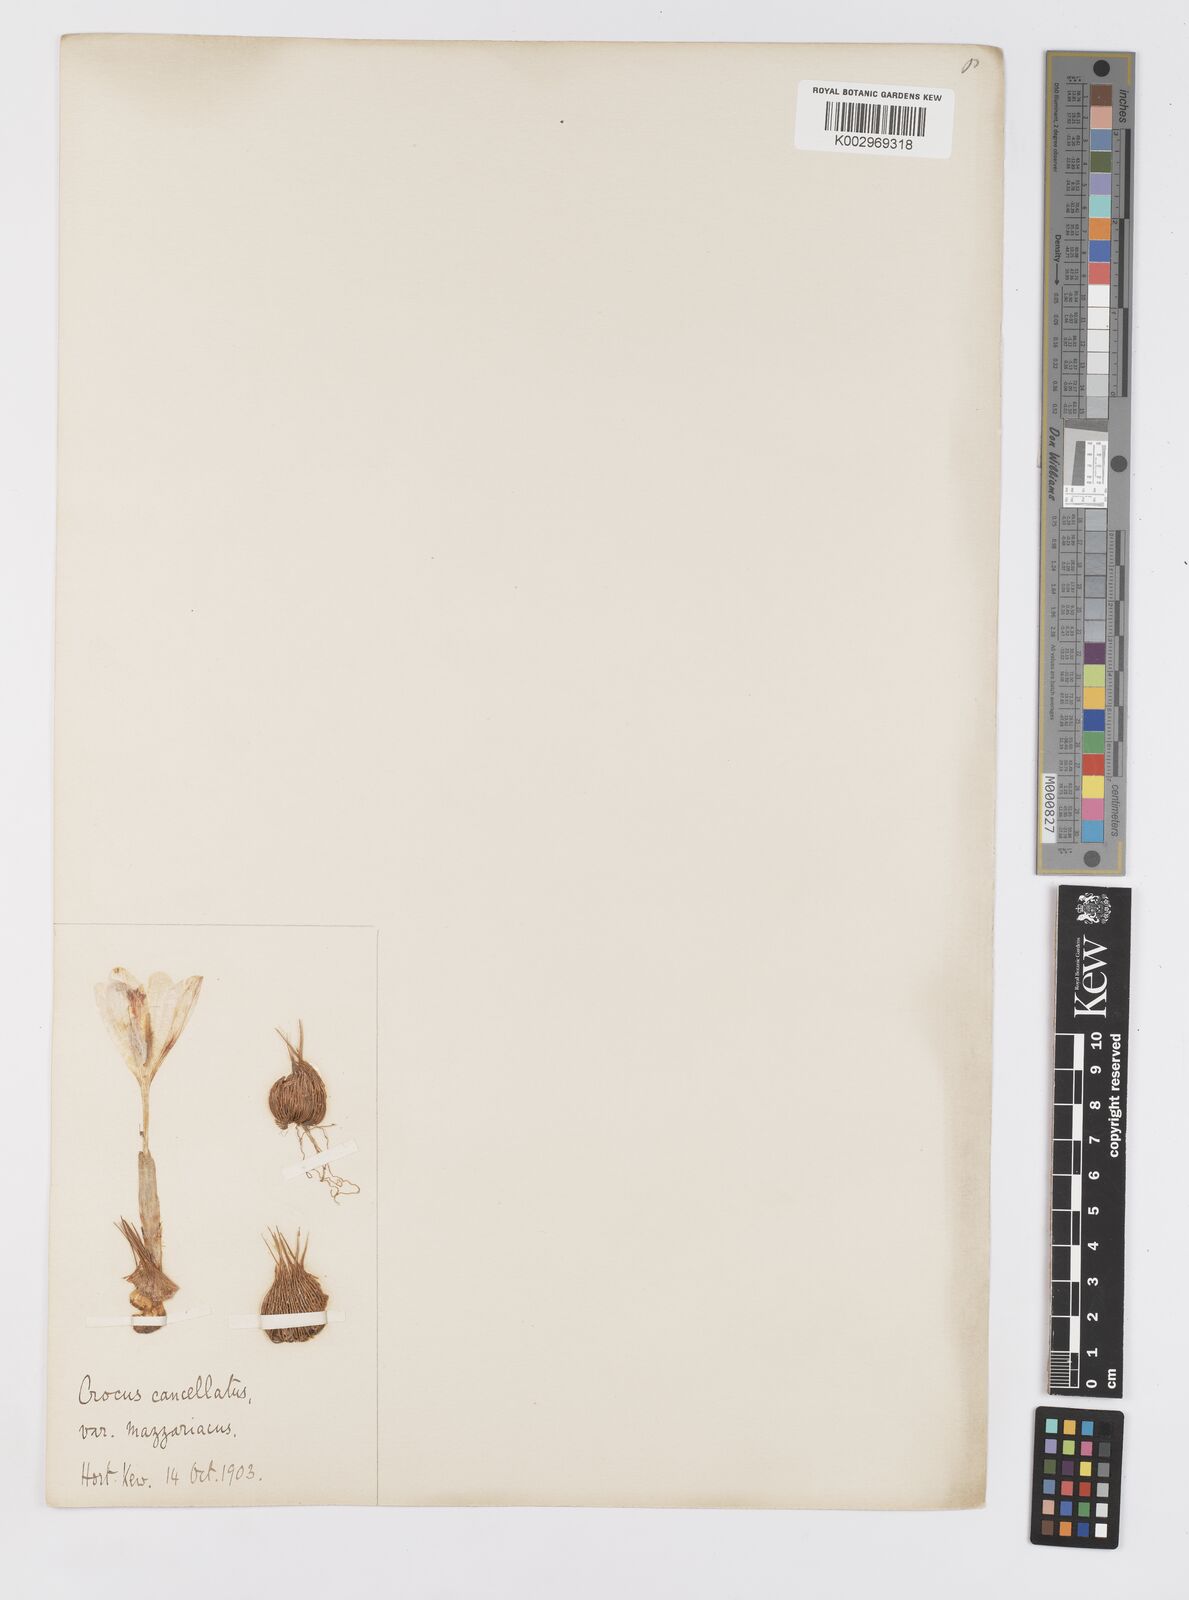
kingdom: Plantae
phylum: Tracheophyta
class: Liliopsida
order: Asparagales
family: Iridaceae
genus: Crocus
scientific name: Crocus cancellatus
